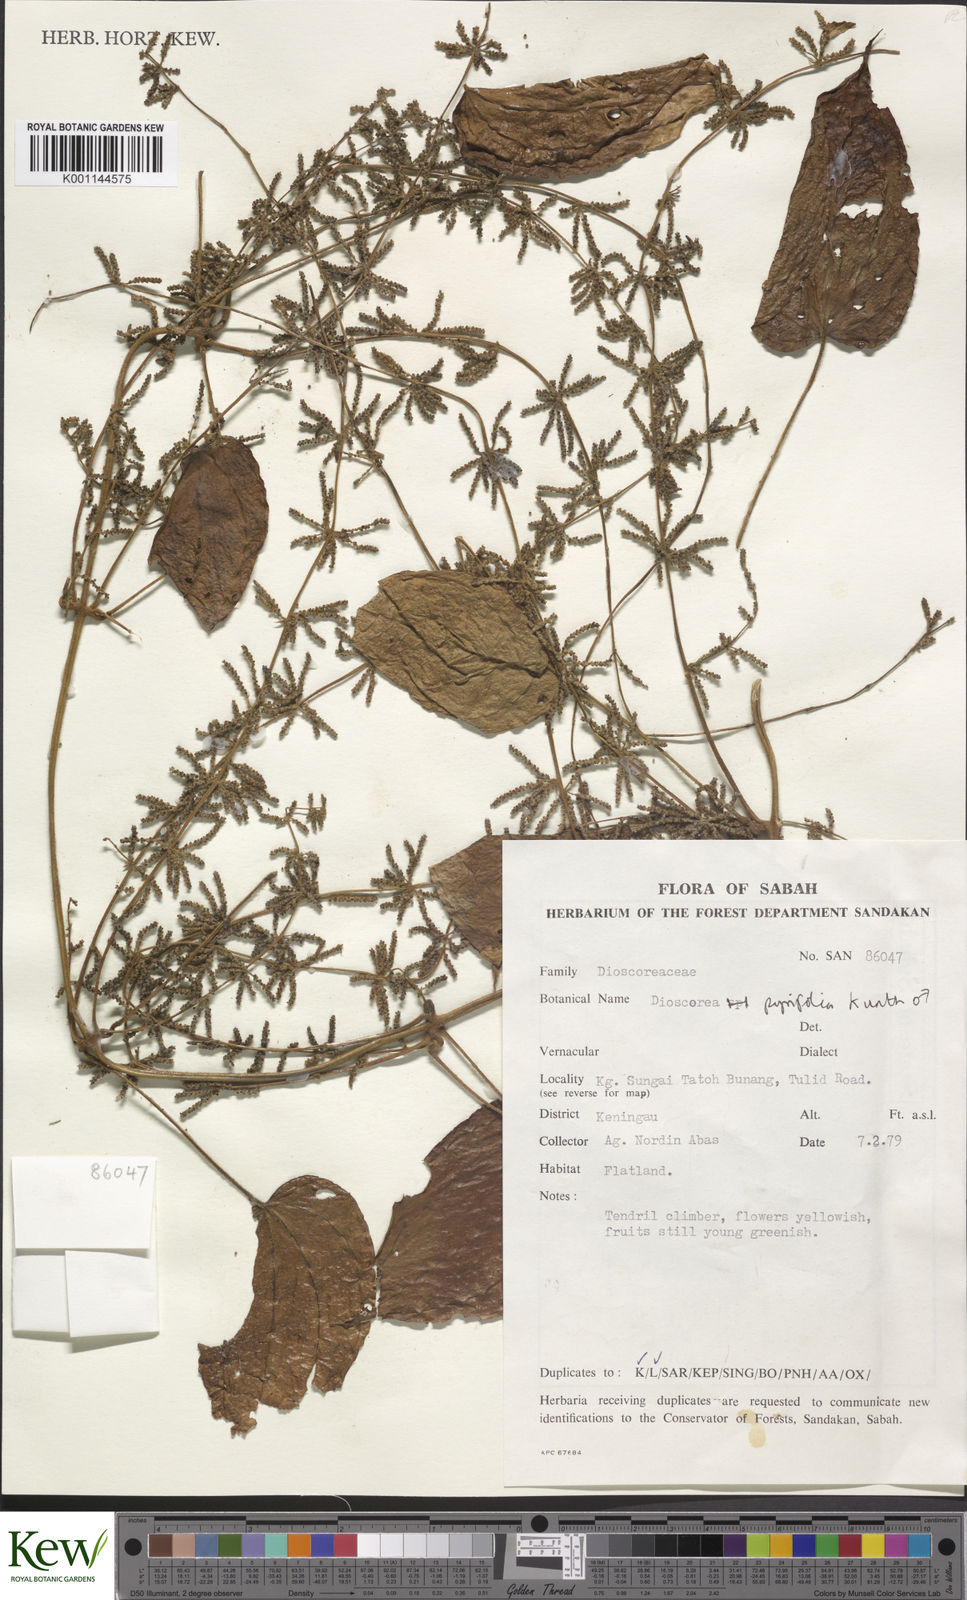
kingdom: Plantae
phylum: Tracheophyta
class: Liliopsida
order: Dioscoreales
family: Dioscoreaceae
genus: Dioscorea
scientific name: Dioscorea pyrifolia
